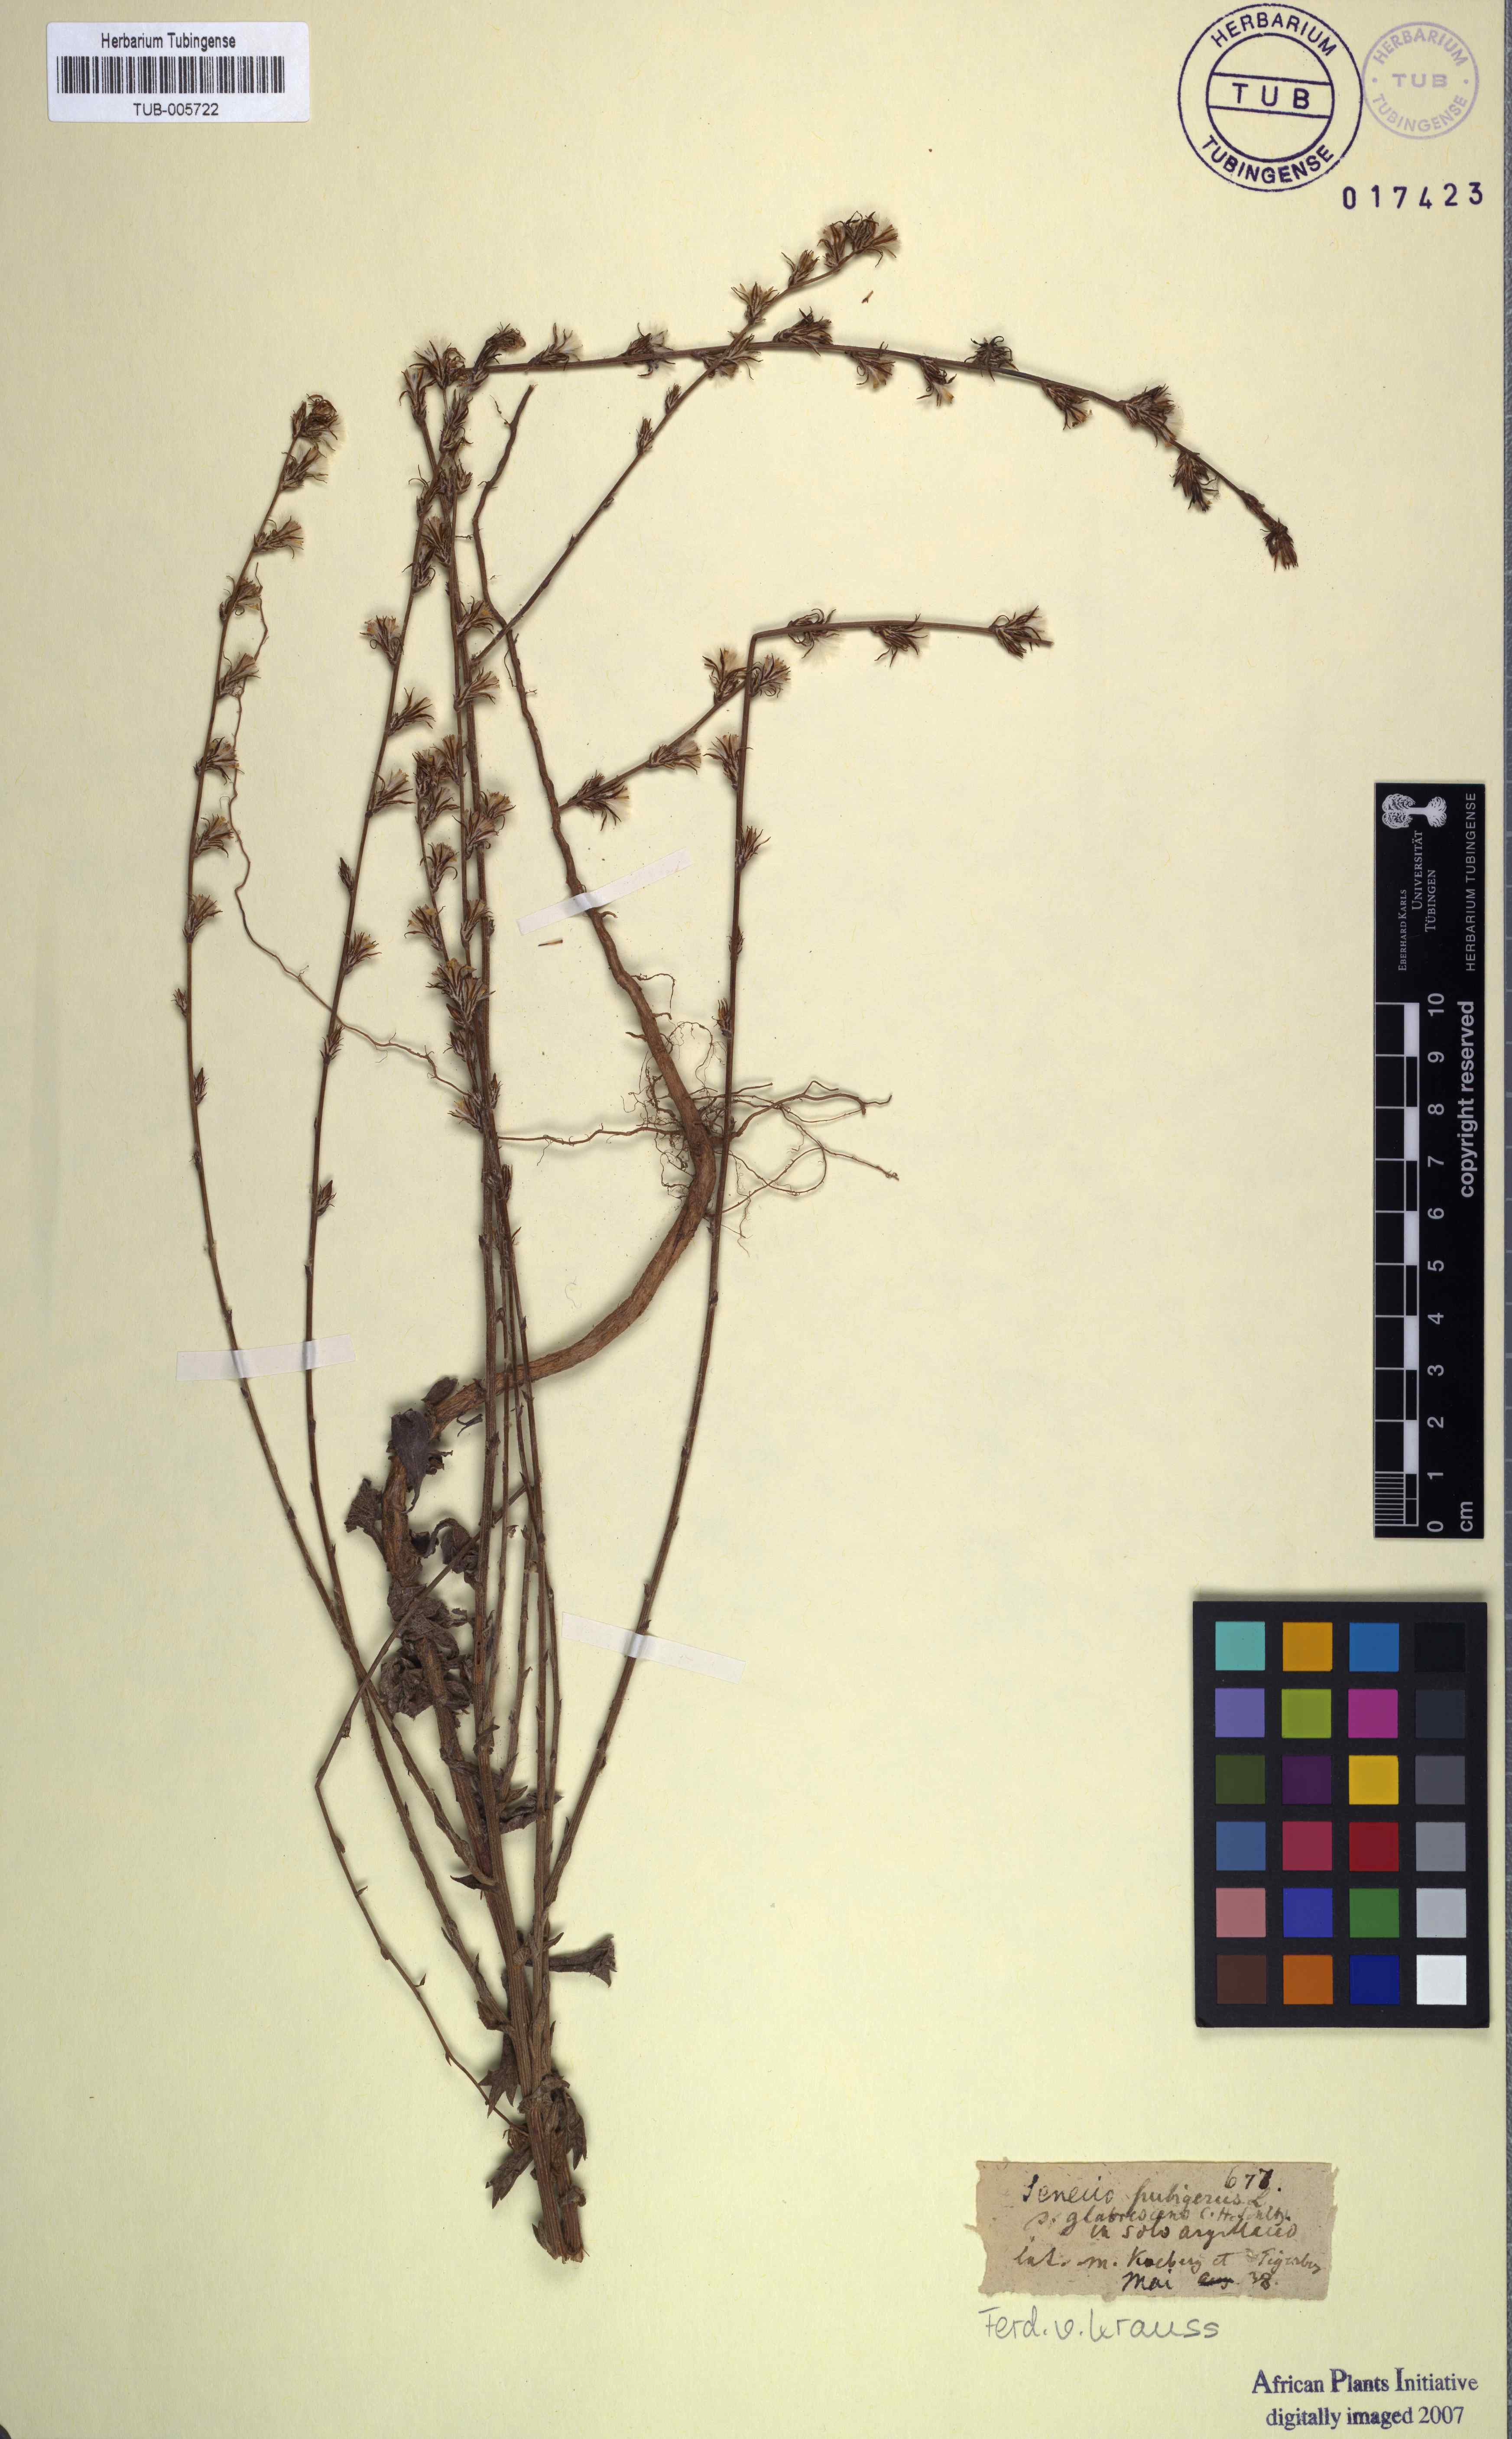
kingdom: Plantae
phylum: Tracheophyta
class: Magnoliopsida
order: Asterales
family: Asteraceae
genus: Senecio
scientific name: Senecio pubigerus
